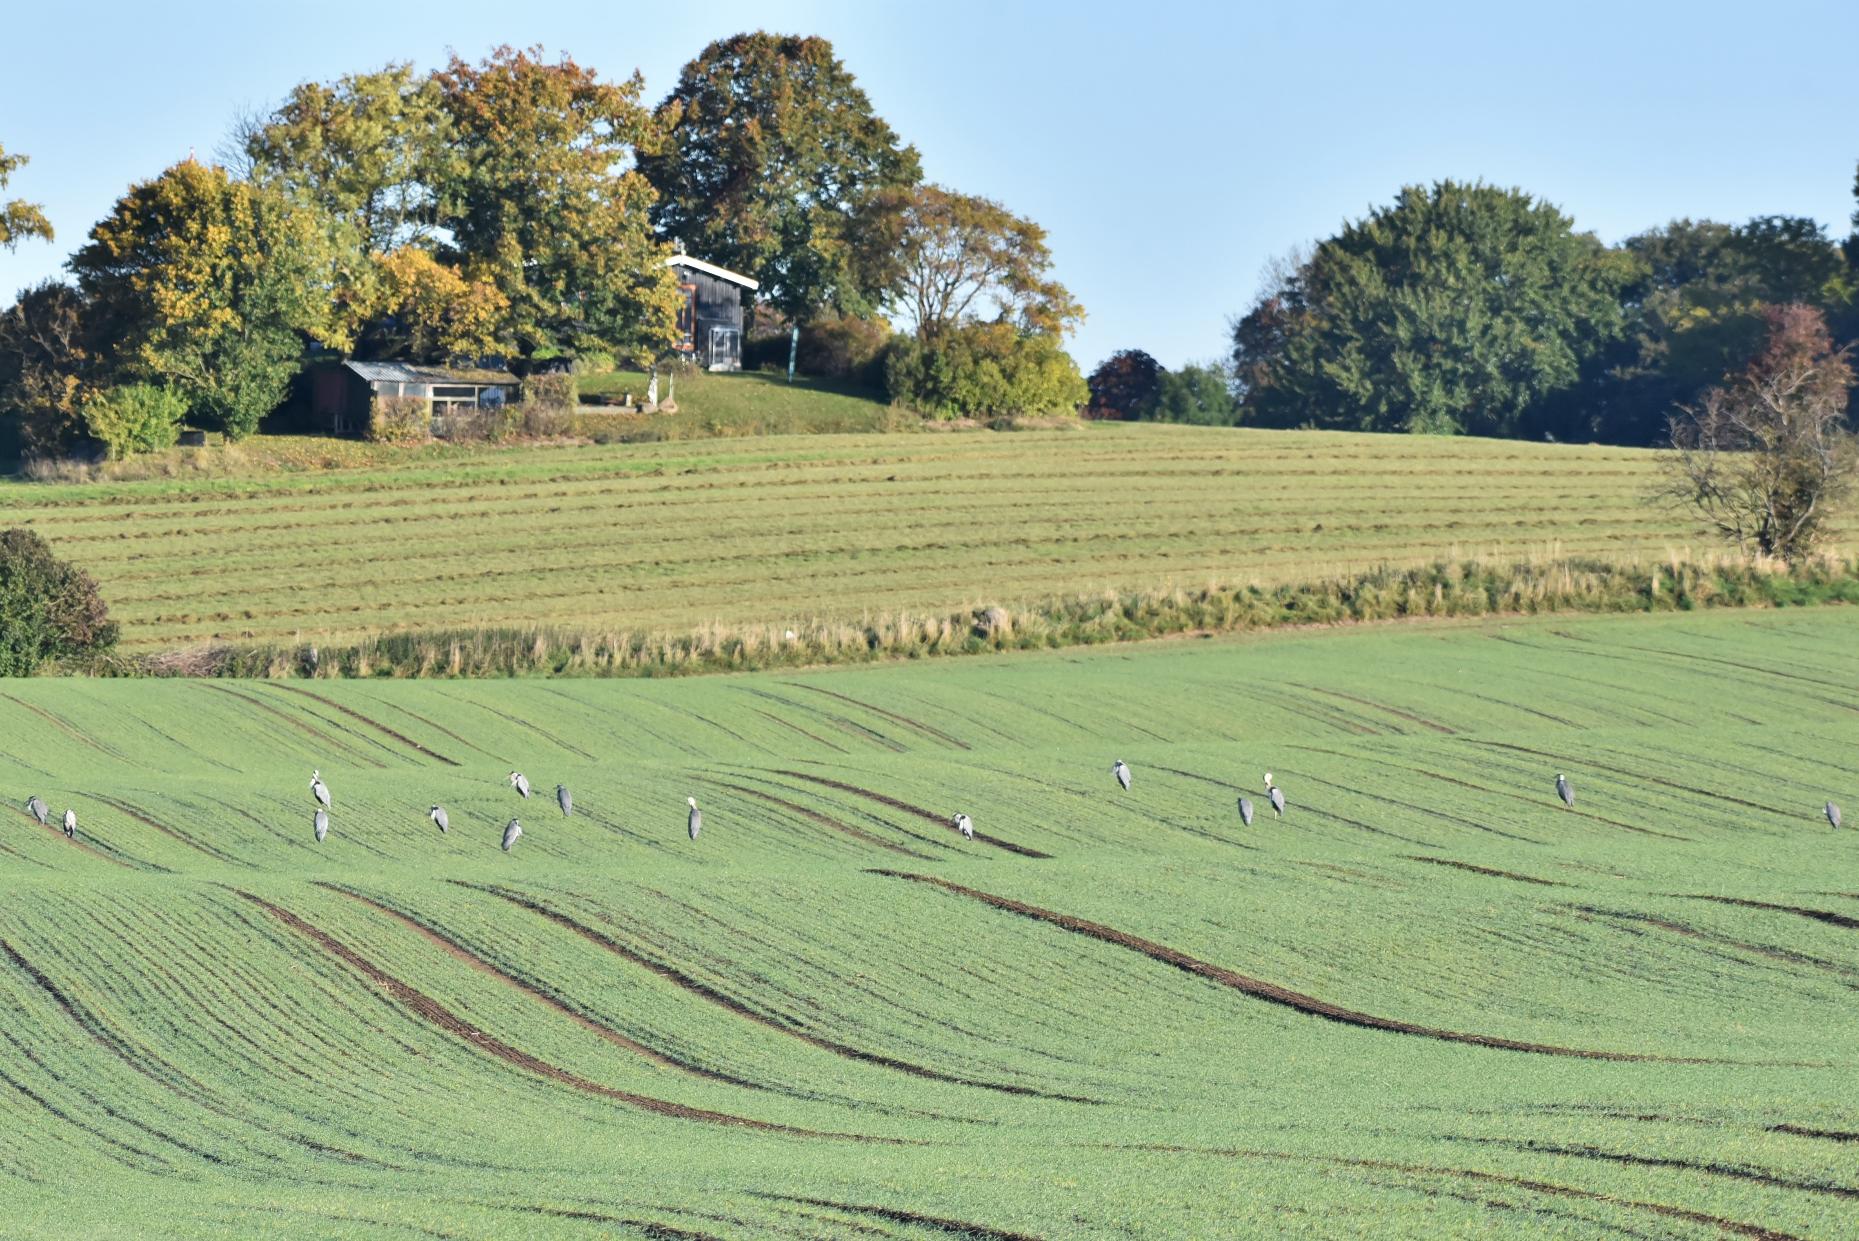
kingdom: Animalia
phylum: Chordata
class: Aves
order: Pelecaniformes
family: Ardeidae
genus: Ardea
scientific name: Ardea cinerea
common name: Fiskehejre
